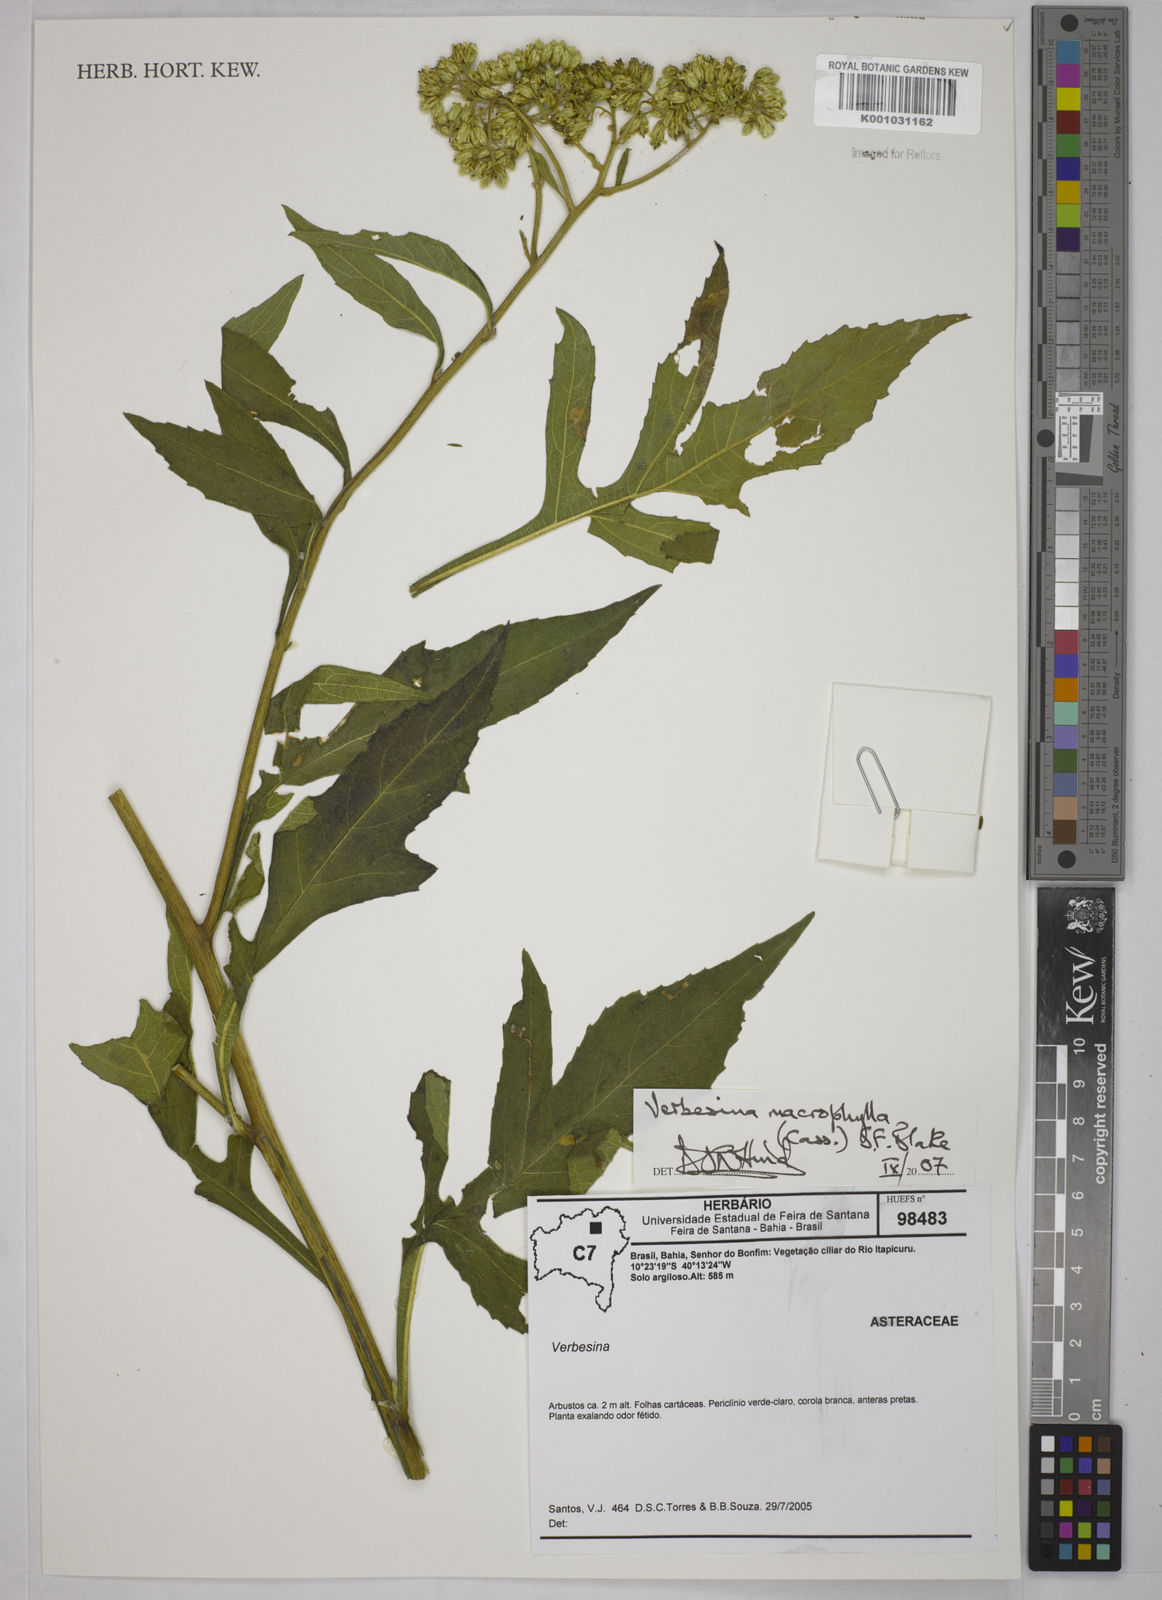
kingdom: Plantae
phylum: Tracheophyta
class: Magnoliopsida
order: Asterales
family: Asteraceae
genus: Verbesina
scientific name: Verbesina macrophylla
